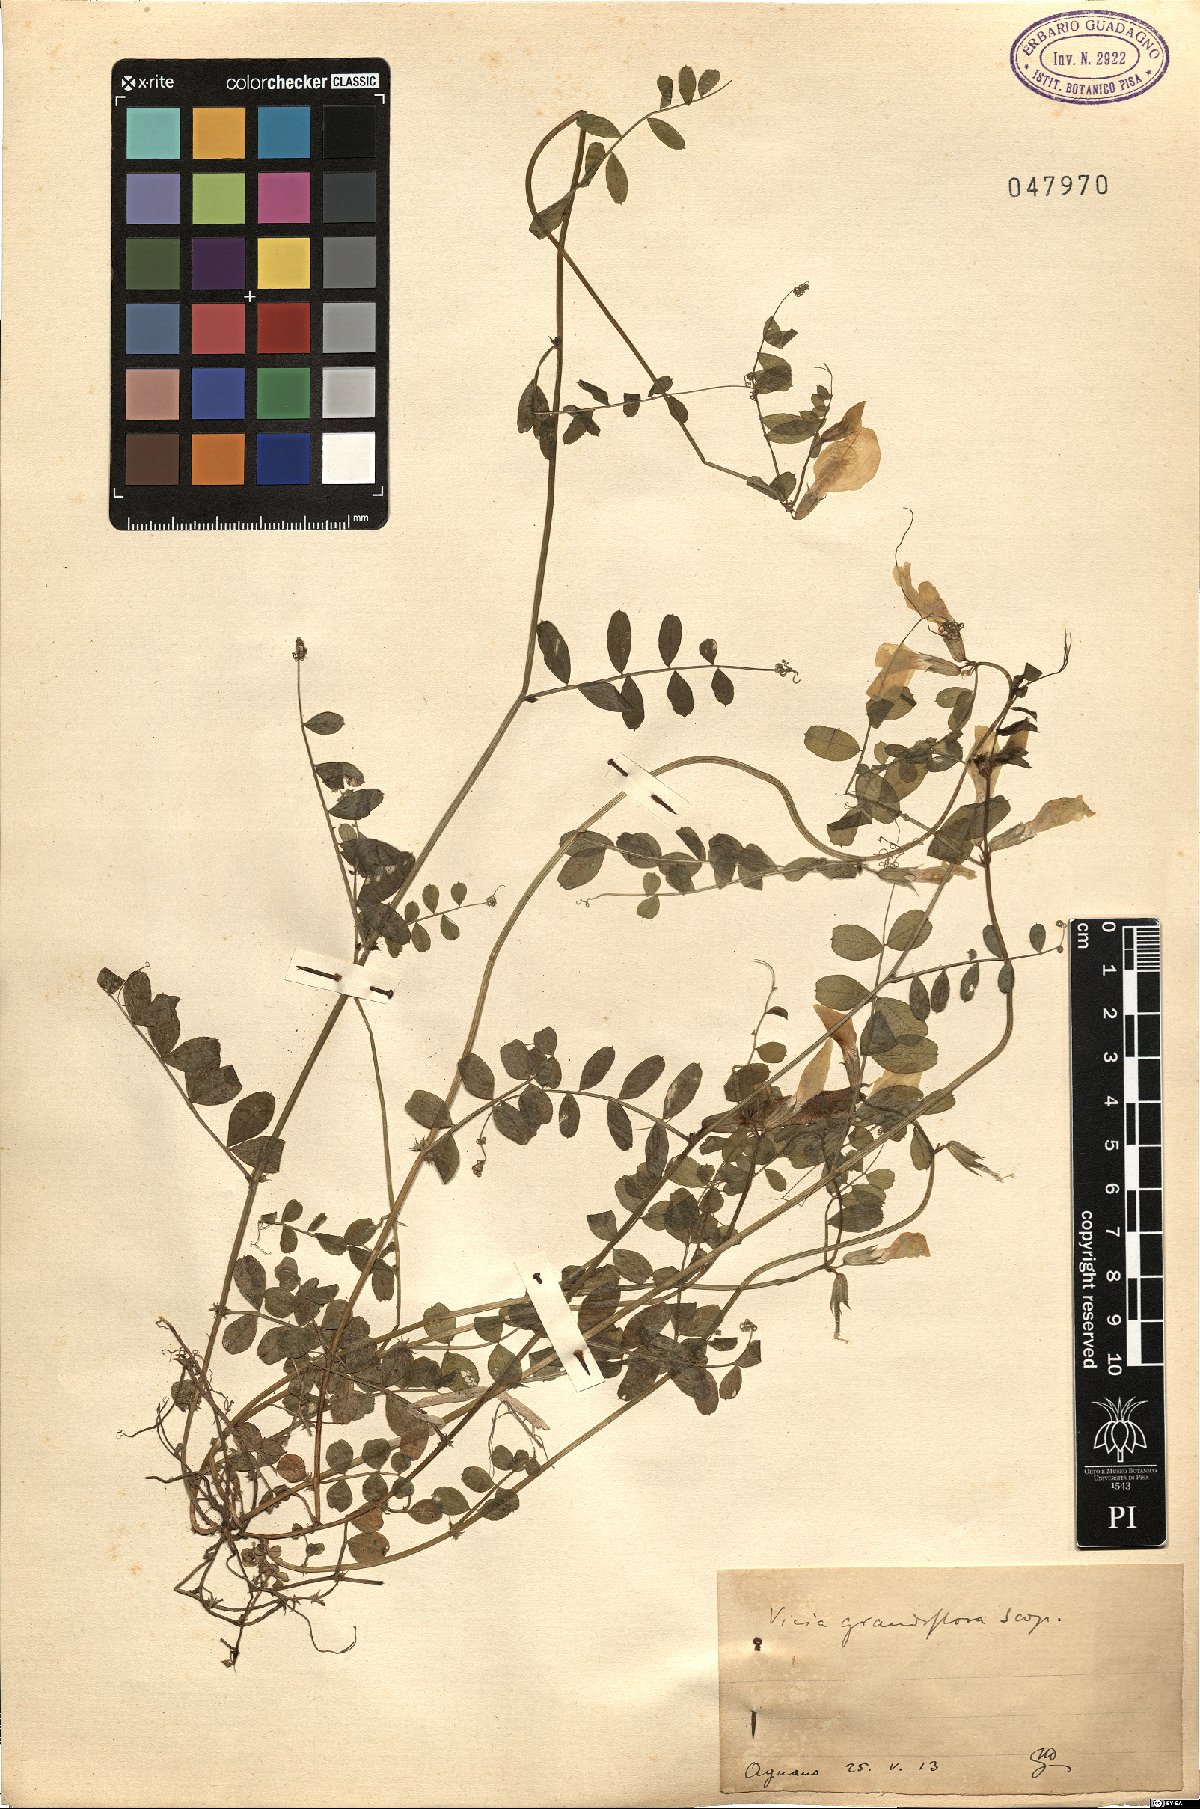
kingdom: Plantae
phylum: Tracheophyta
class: Magnoliopsida
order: Fabales
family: Fabaceae
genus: Vicia
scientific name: Vicia grandiflora
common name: Large yellow vetch
